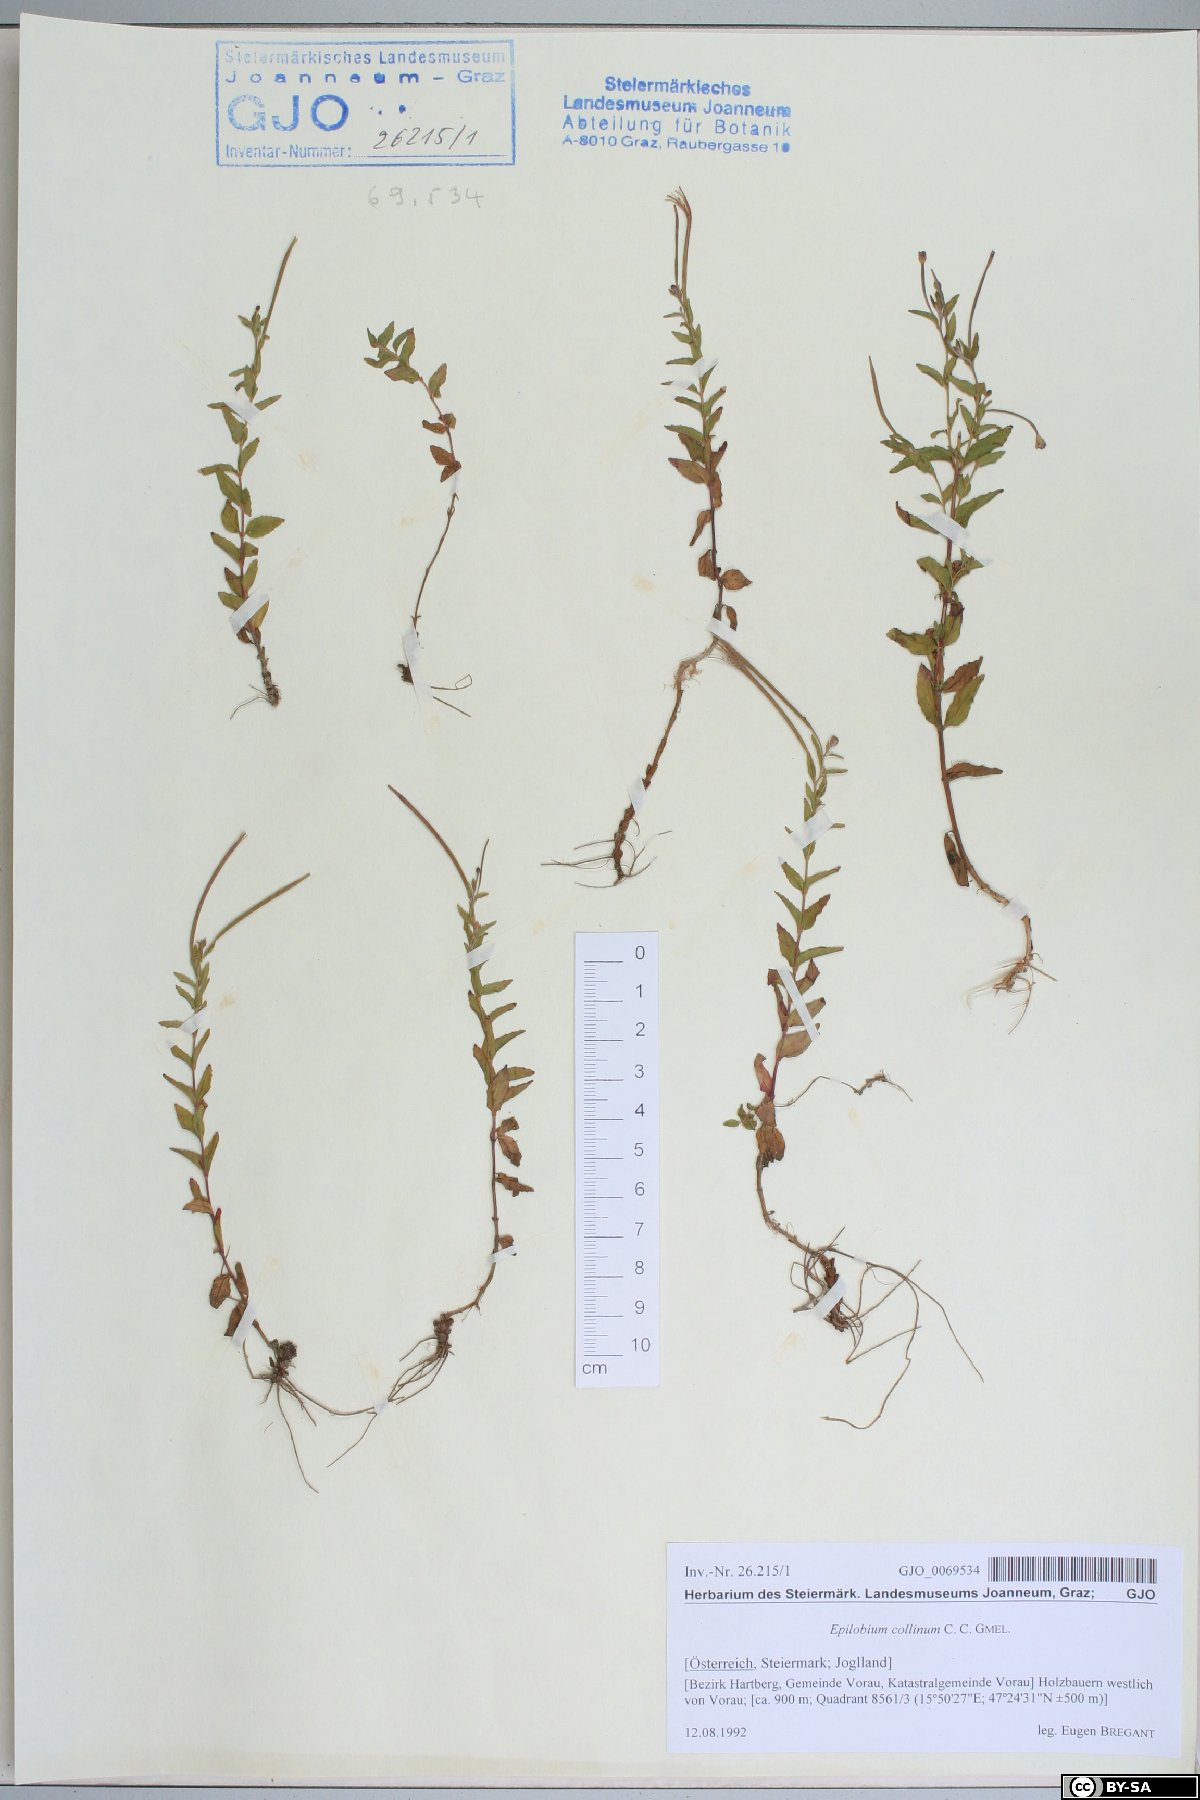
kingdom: Plantae
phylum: Tracheophyta
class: Magnoliopsida
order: Myrtales
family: Onagraceae
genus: Epilobium
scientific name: Epilobium collinum
